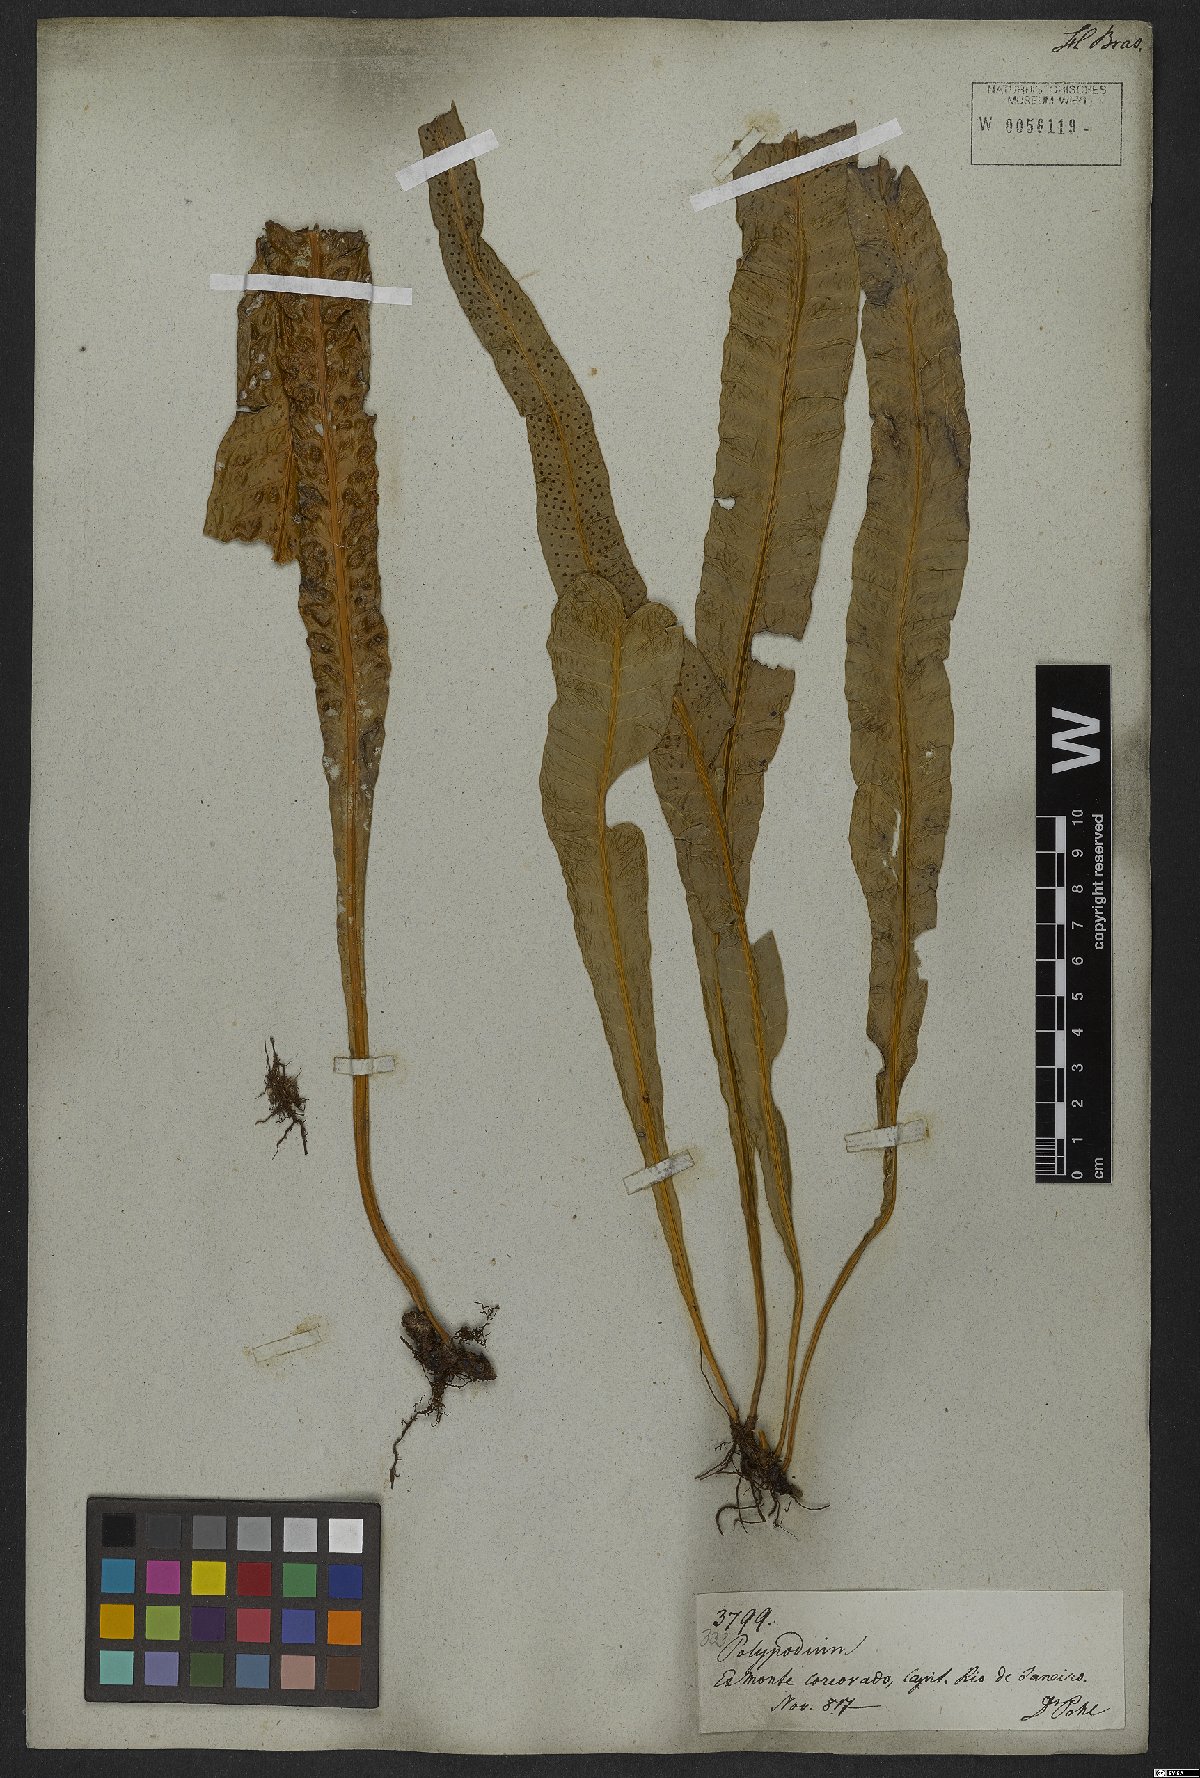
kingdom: Plantae
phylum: Tracheophyta
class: Polypodiopsida
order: Polypodiales
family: Polypodiaceae
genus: Campyloneurum
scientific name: Campyloneurum phyllitidis
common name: Cow-tongue fern
